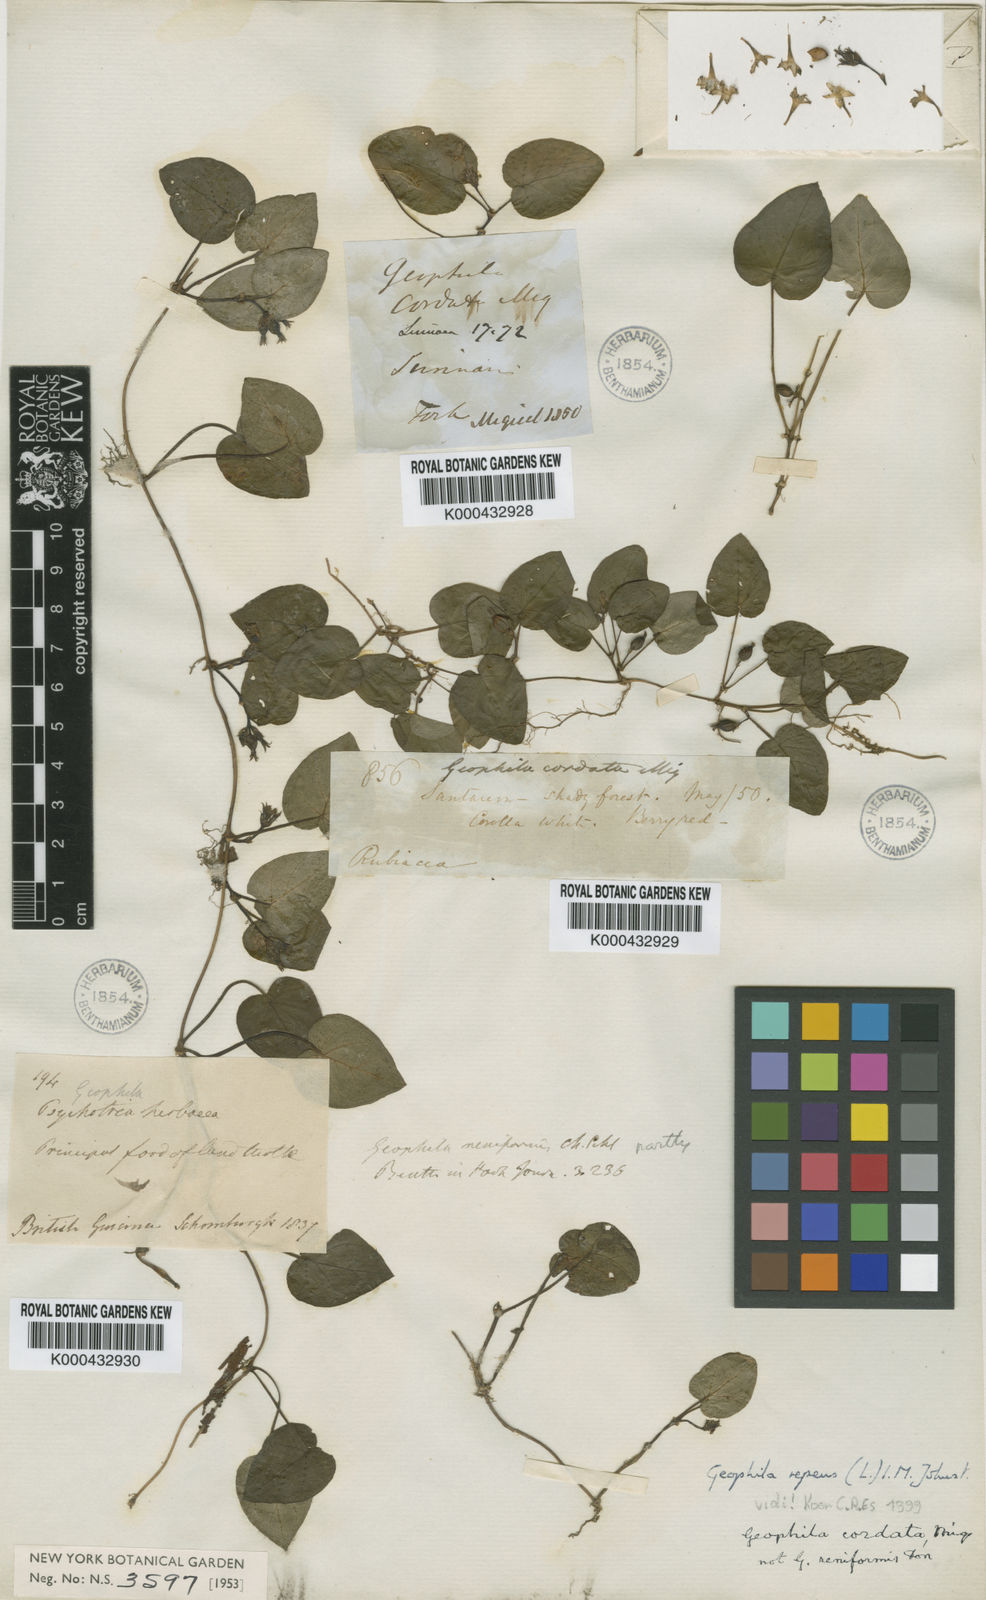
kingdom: Plantae
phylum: Tracheophyta
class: Magnoliopsida
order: Gentianales
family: Rubiaceae
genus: Geophila
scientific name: Geophila repens
